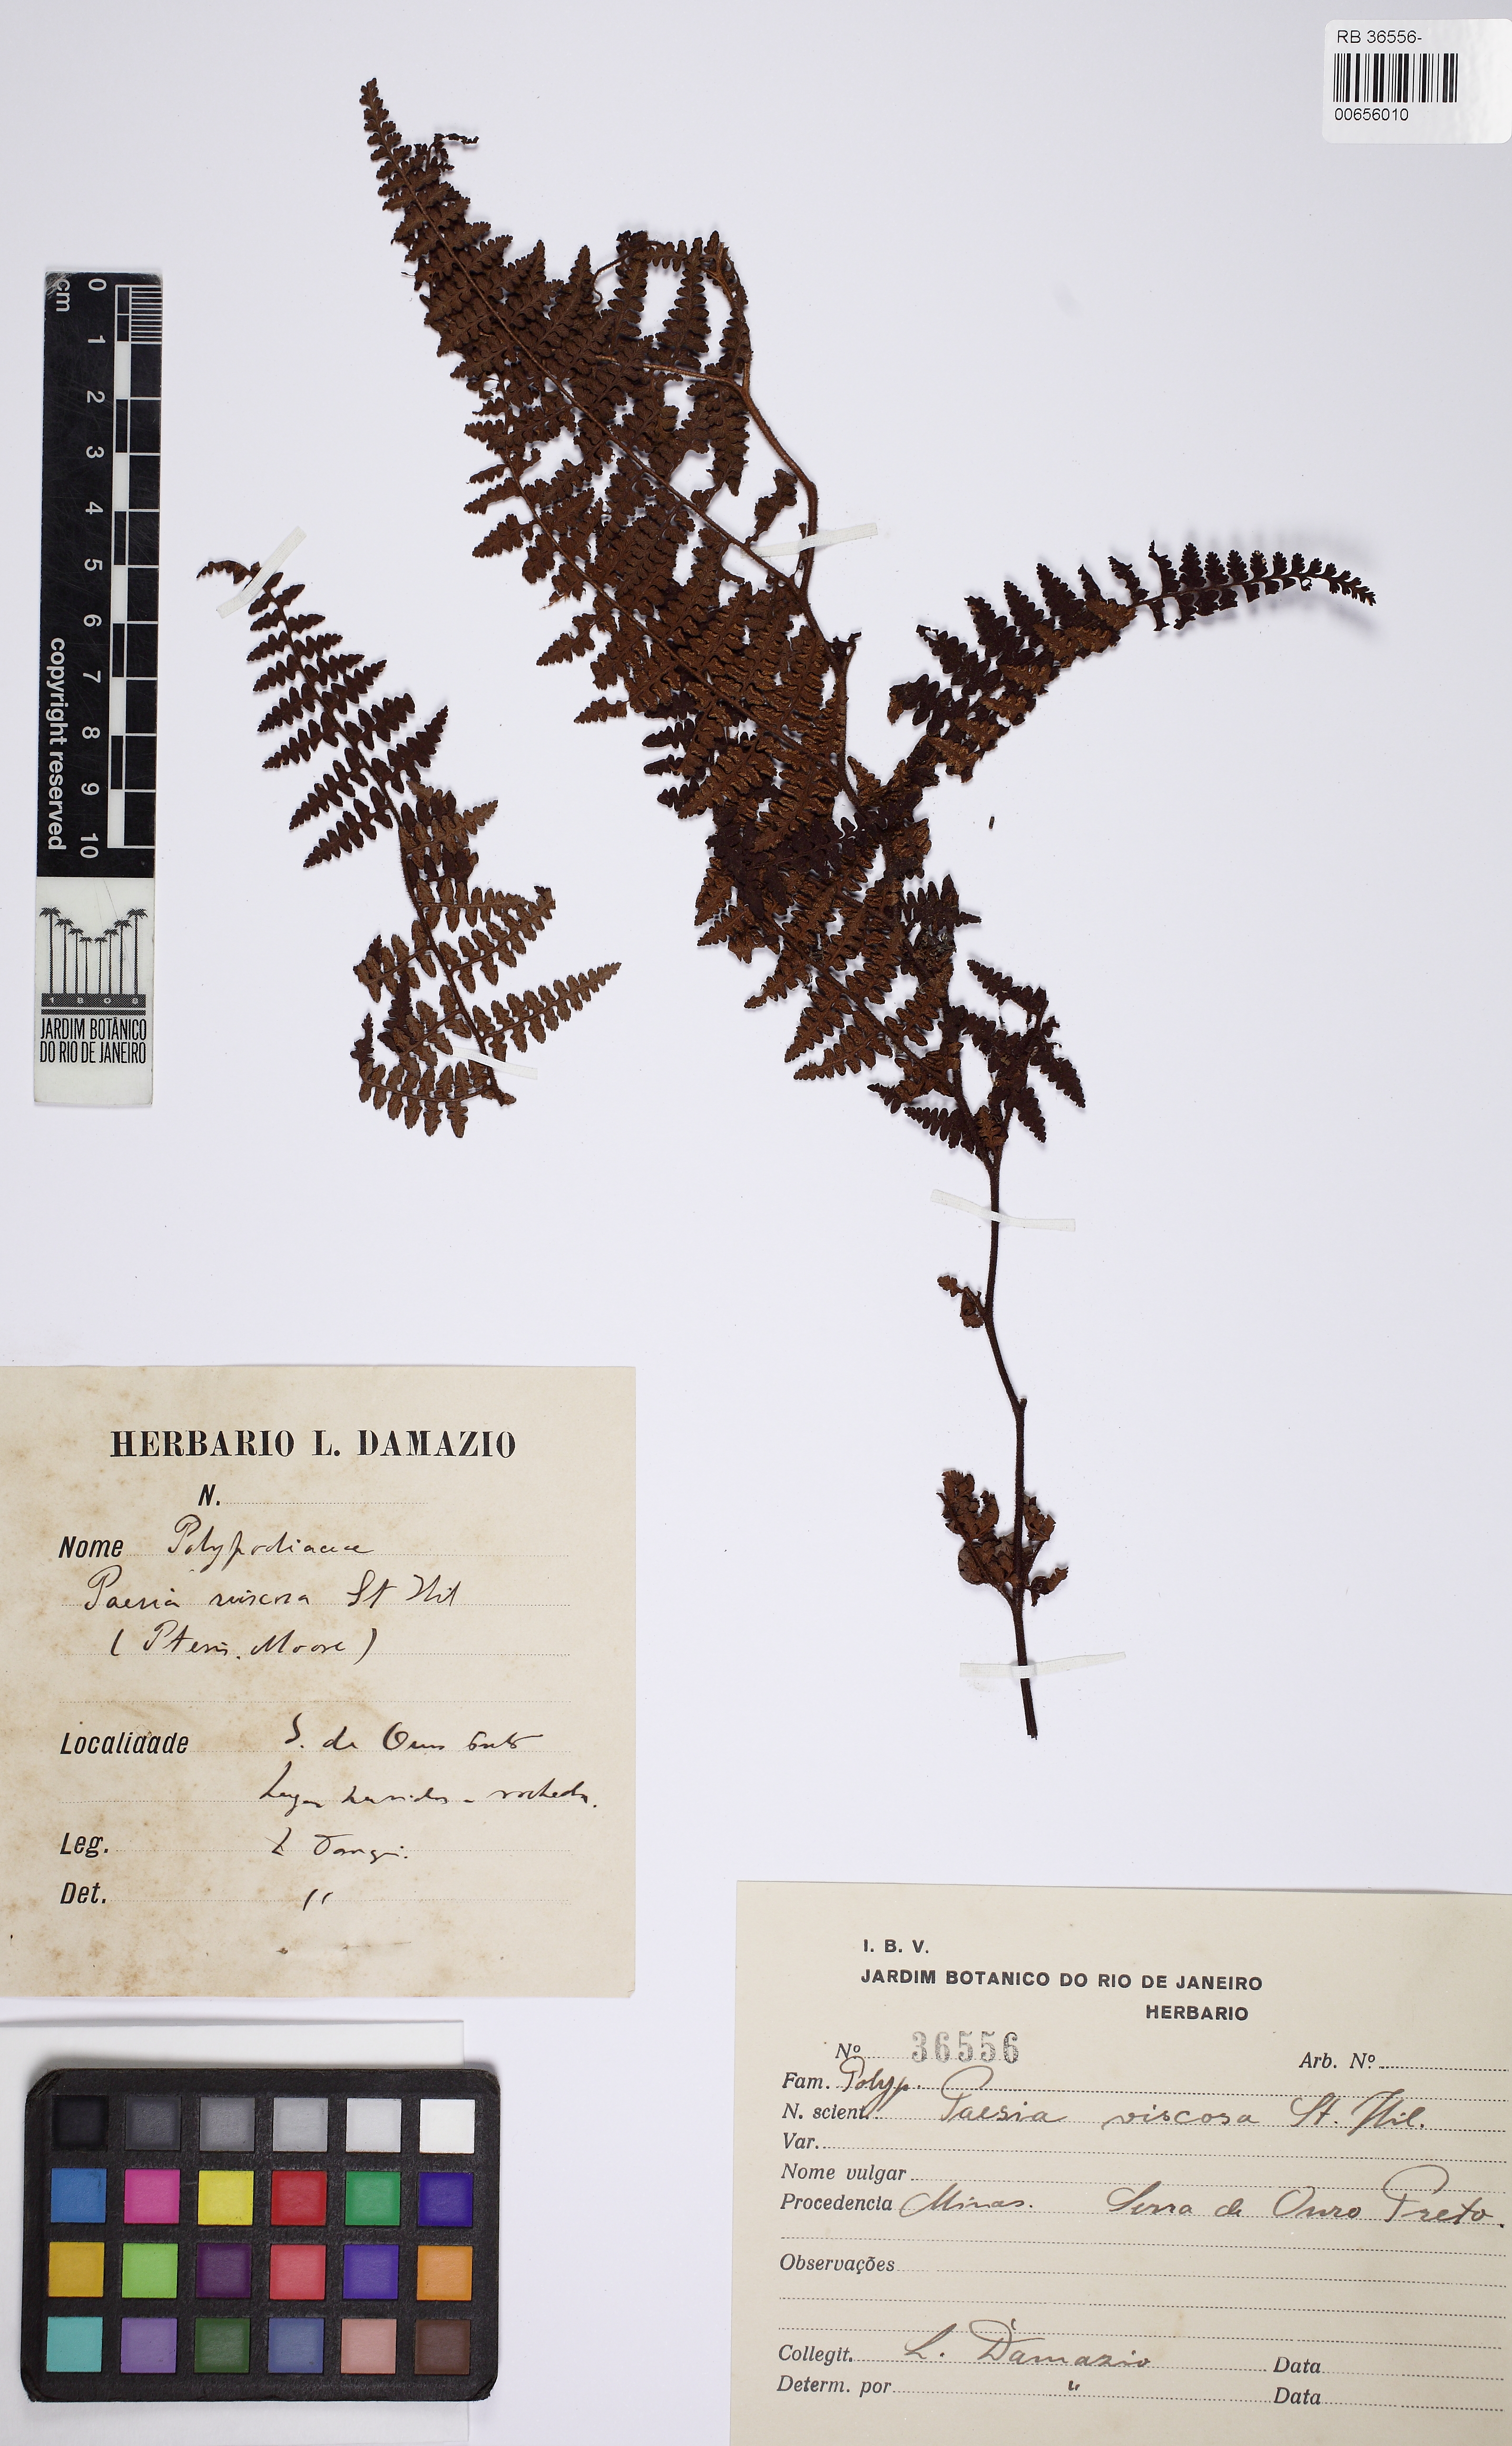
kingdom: Plantae
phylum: Tracheophyta
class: Polypodiopsida
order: Polypodiales
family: Dennstaedtiaceae
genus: Paesia
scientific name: Paesia glandulosa
